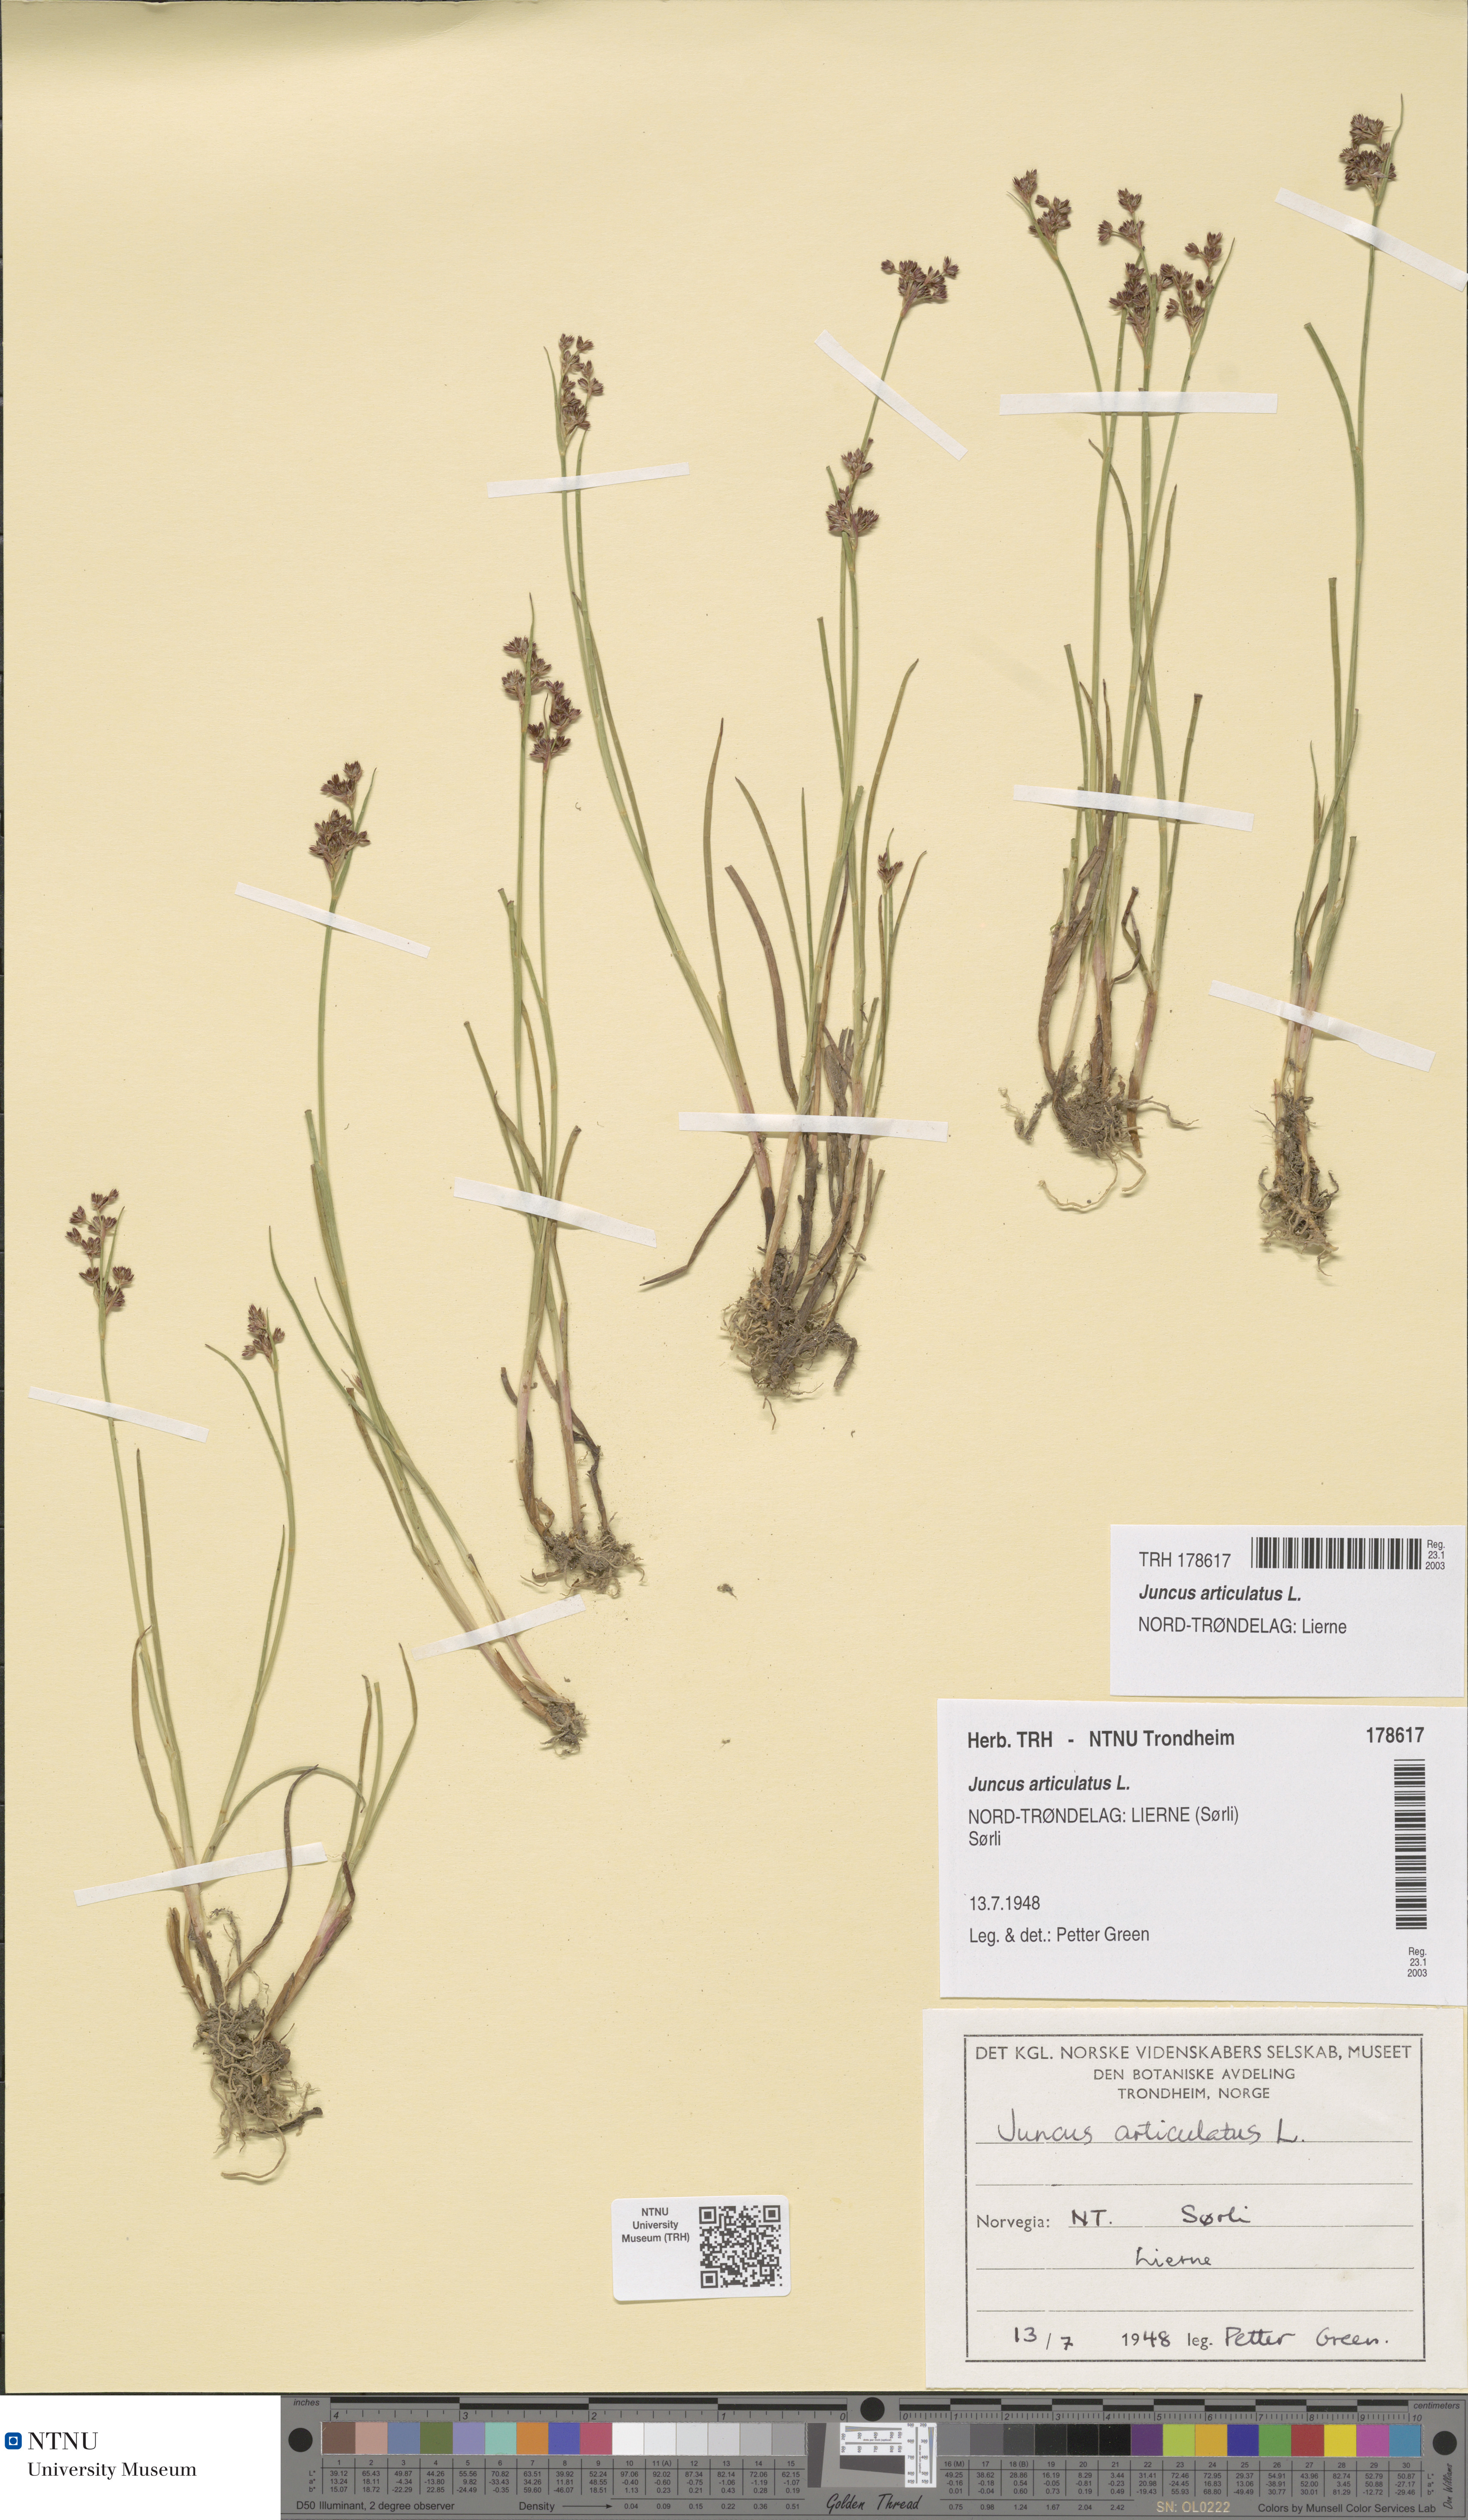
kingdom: Plantae
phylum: Tracheophyta
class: Liliopsida
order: Poales
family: Juncaceae
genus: Juncus
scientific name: Juncus articulatus
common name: Jointed rush
